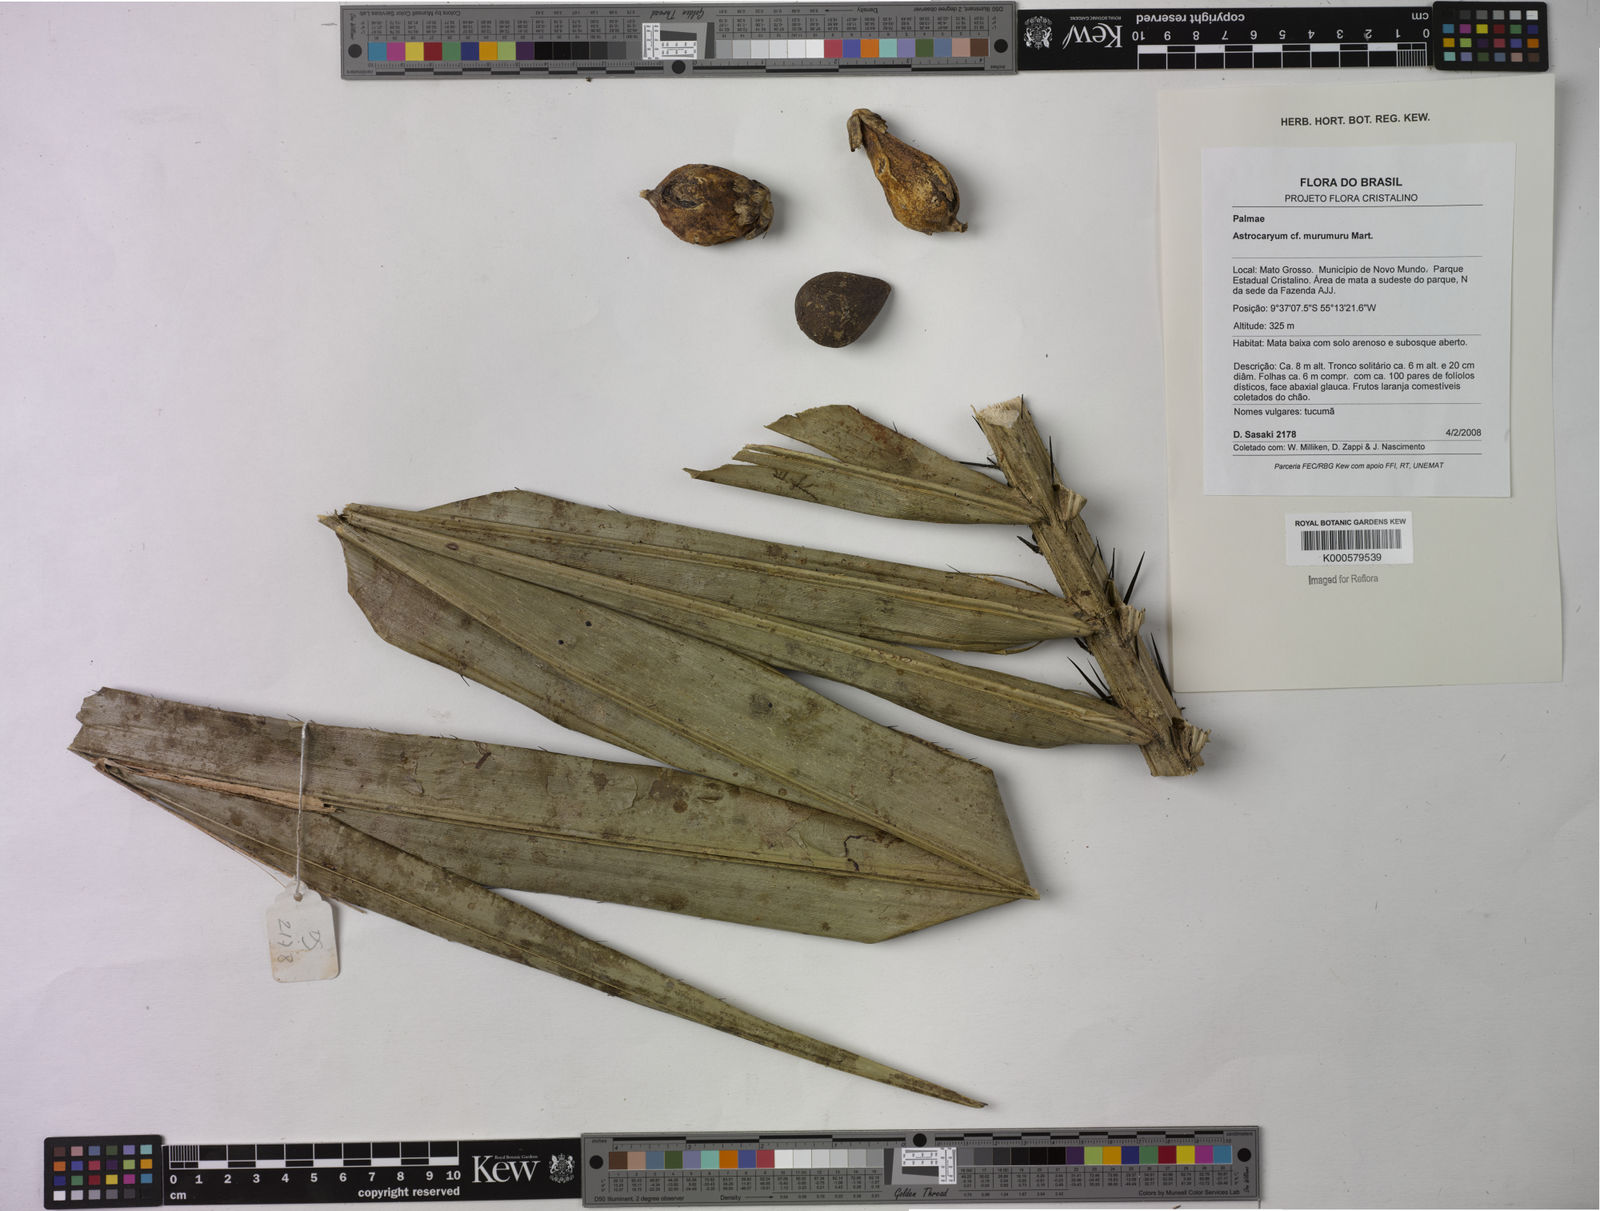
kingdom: Plantae
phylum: Tracheophyta
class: Liliopsida
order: Arecales
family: Arecaceae
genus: Astrocaryum
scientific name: Astrocaryum murumuru
